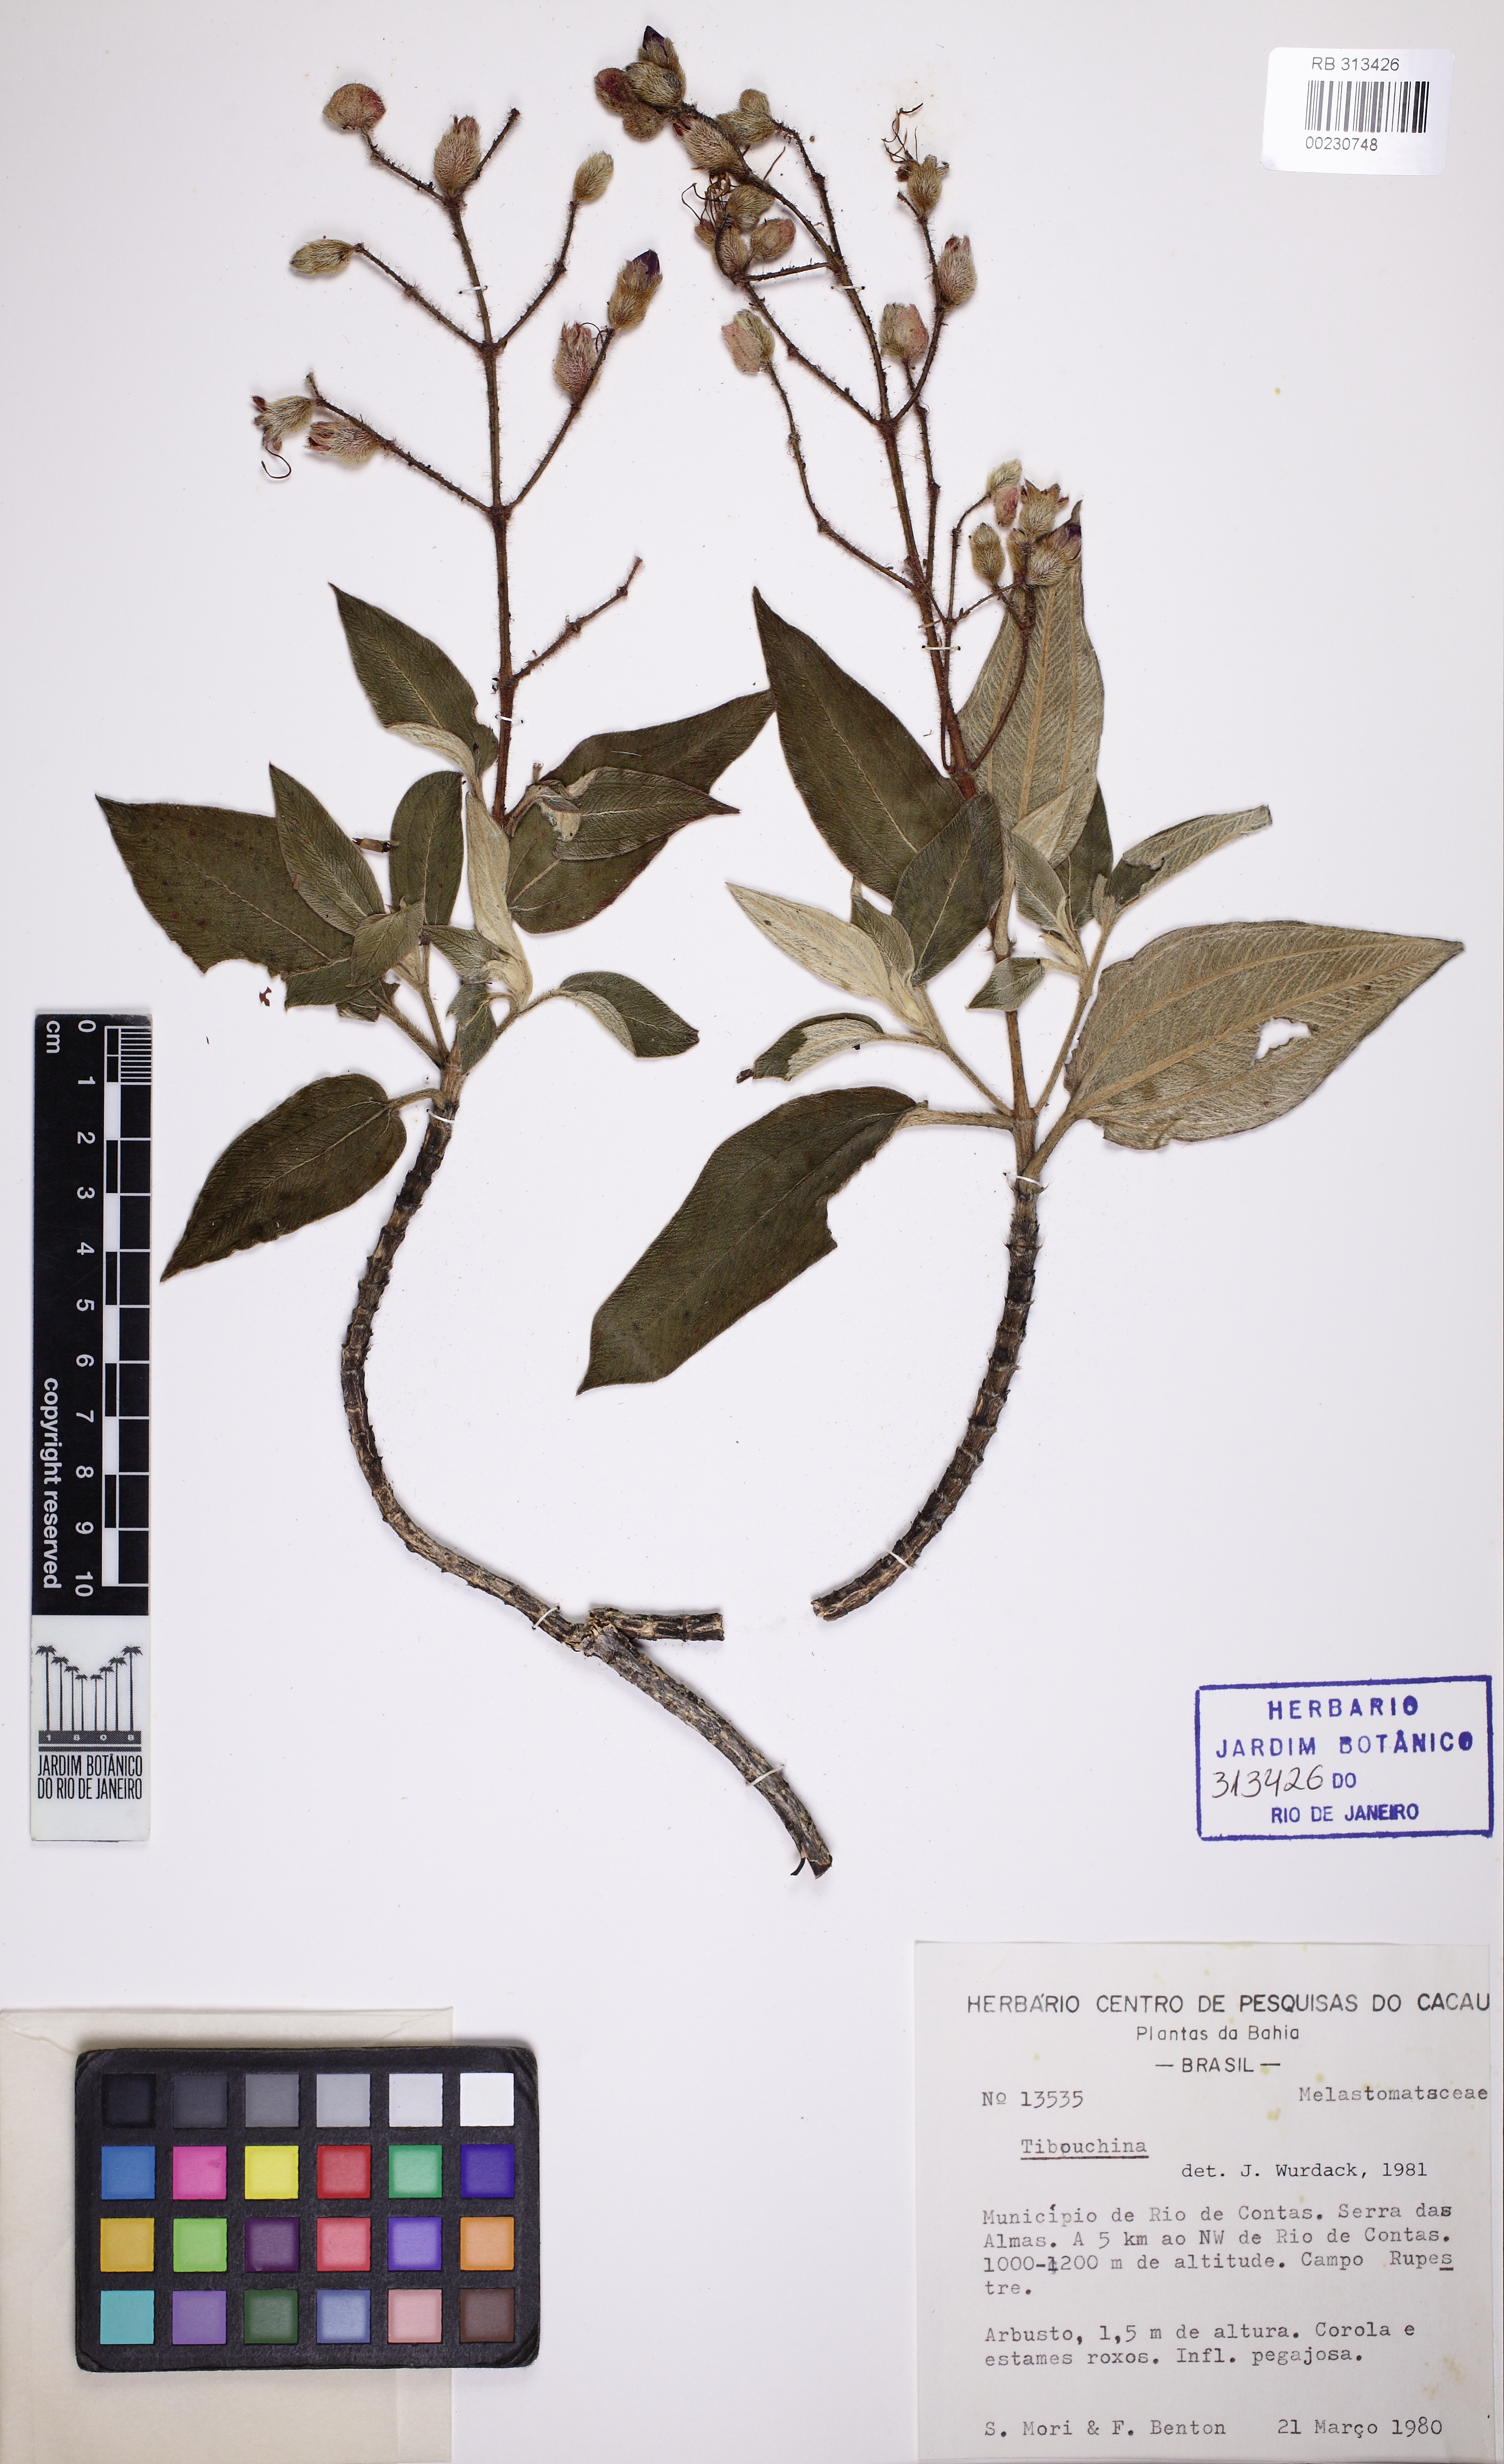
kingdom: Plantae
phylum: Tracheophyta
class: Magnoliopsida
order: Myrtales
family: Melastomataceae
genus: Pleroma
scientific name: Pleroma rubrum
